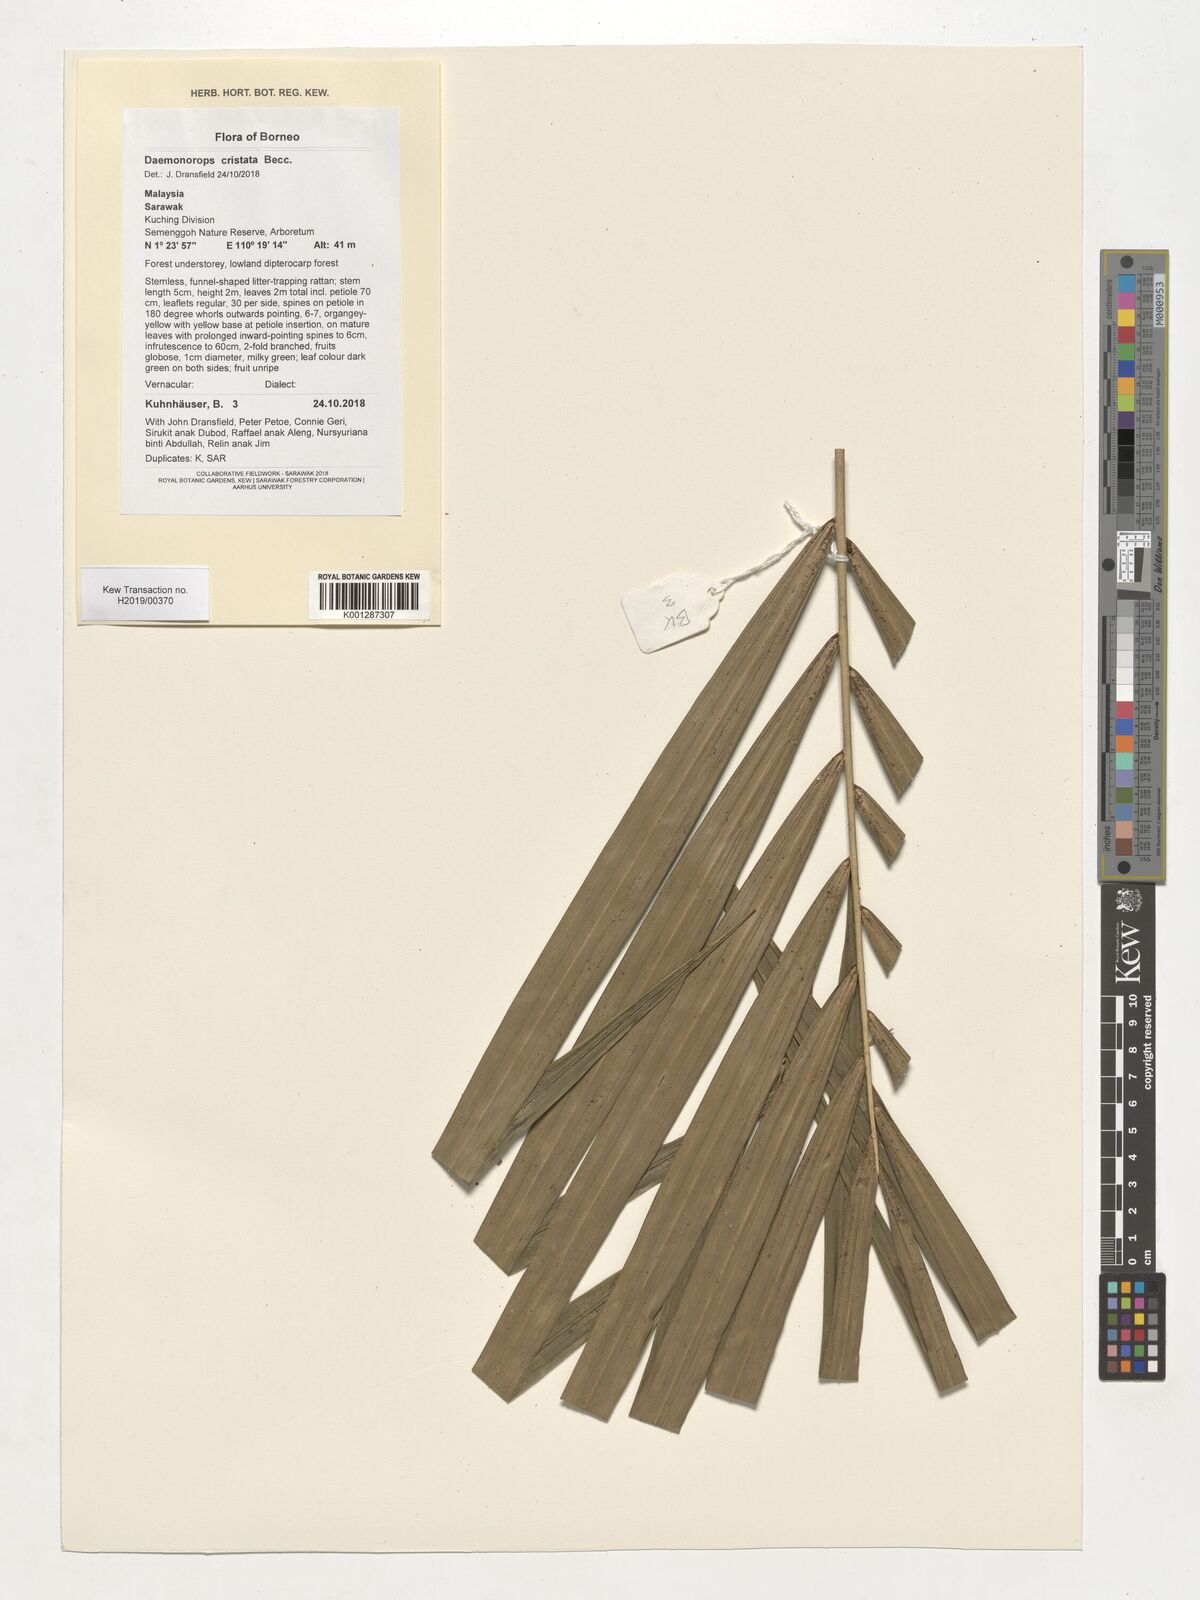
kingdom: Plantae
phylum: Tracheophyta
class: Liliopsida
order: Arecales
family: Arecaceae
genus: Calamus
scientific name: Calamus cristatus
